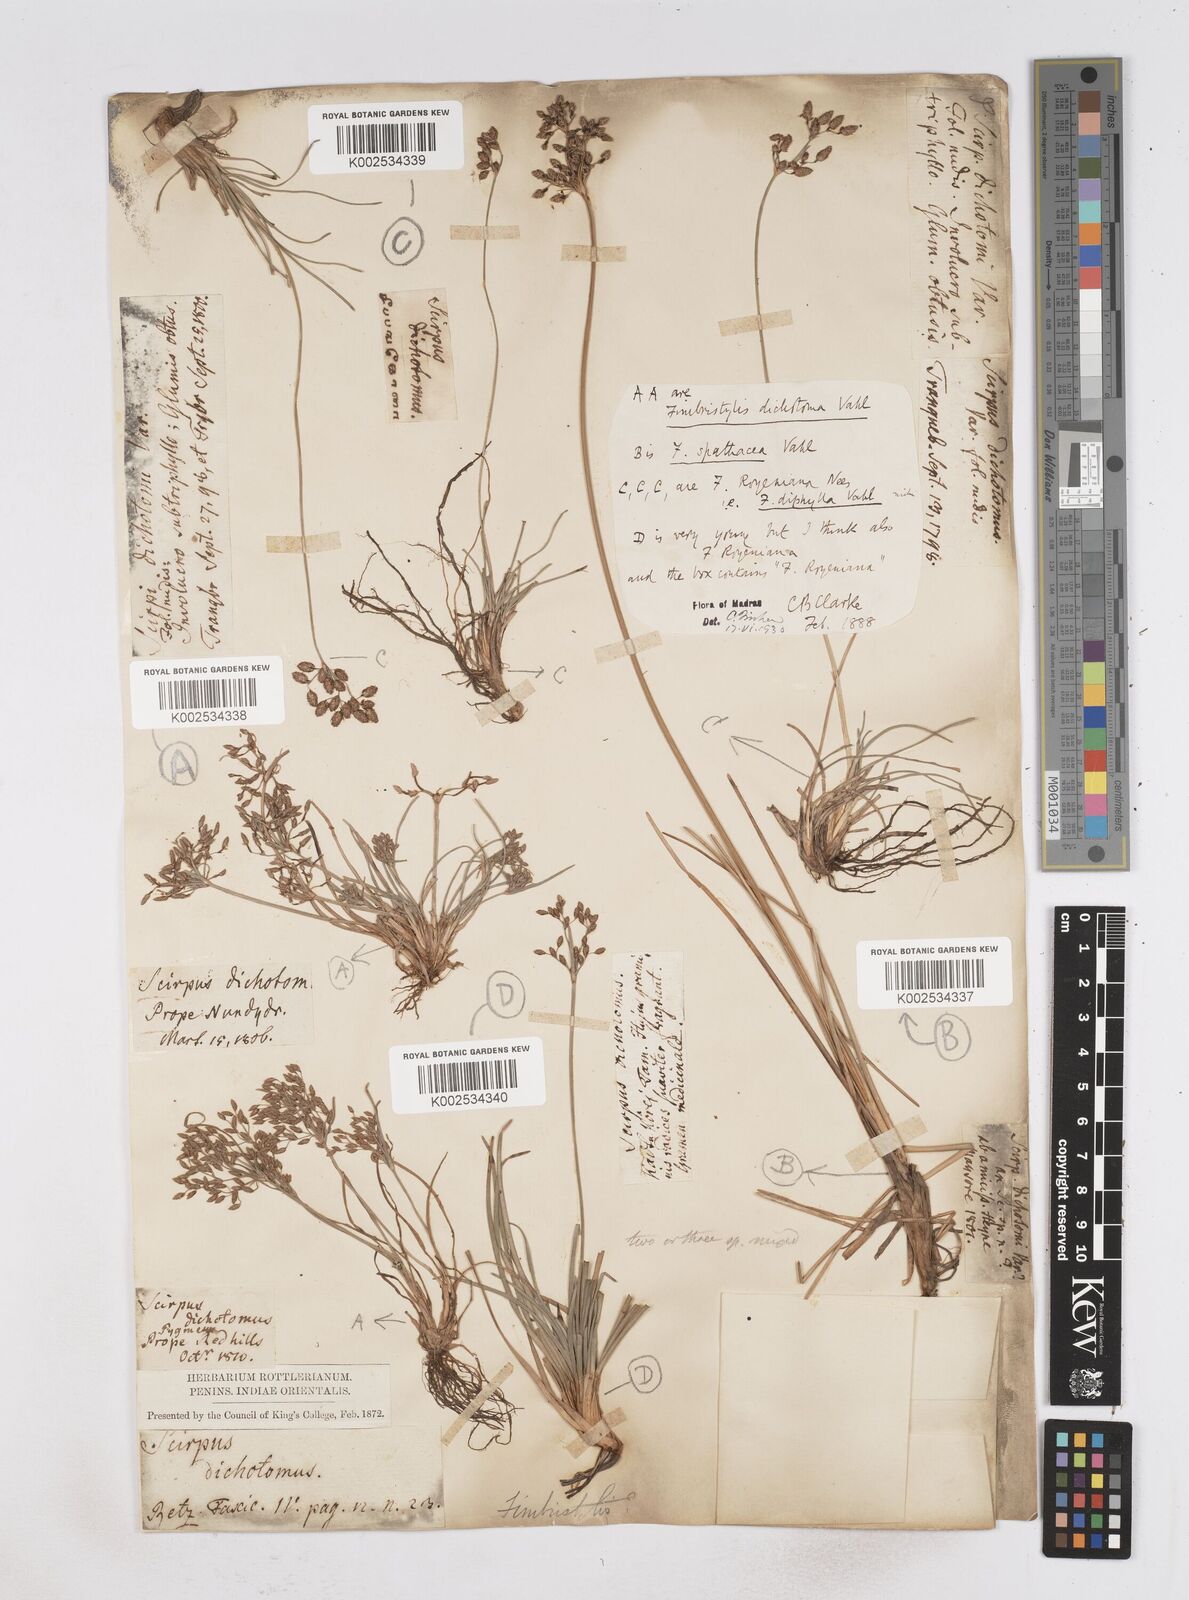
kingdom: Plantae
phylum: Tracheophyta
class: Liliopsida
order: Poales
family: Cyperaceae
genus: Fimbristylis
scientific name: Fimbristylis cymosa
